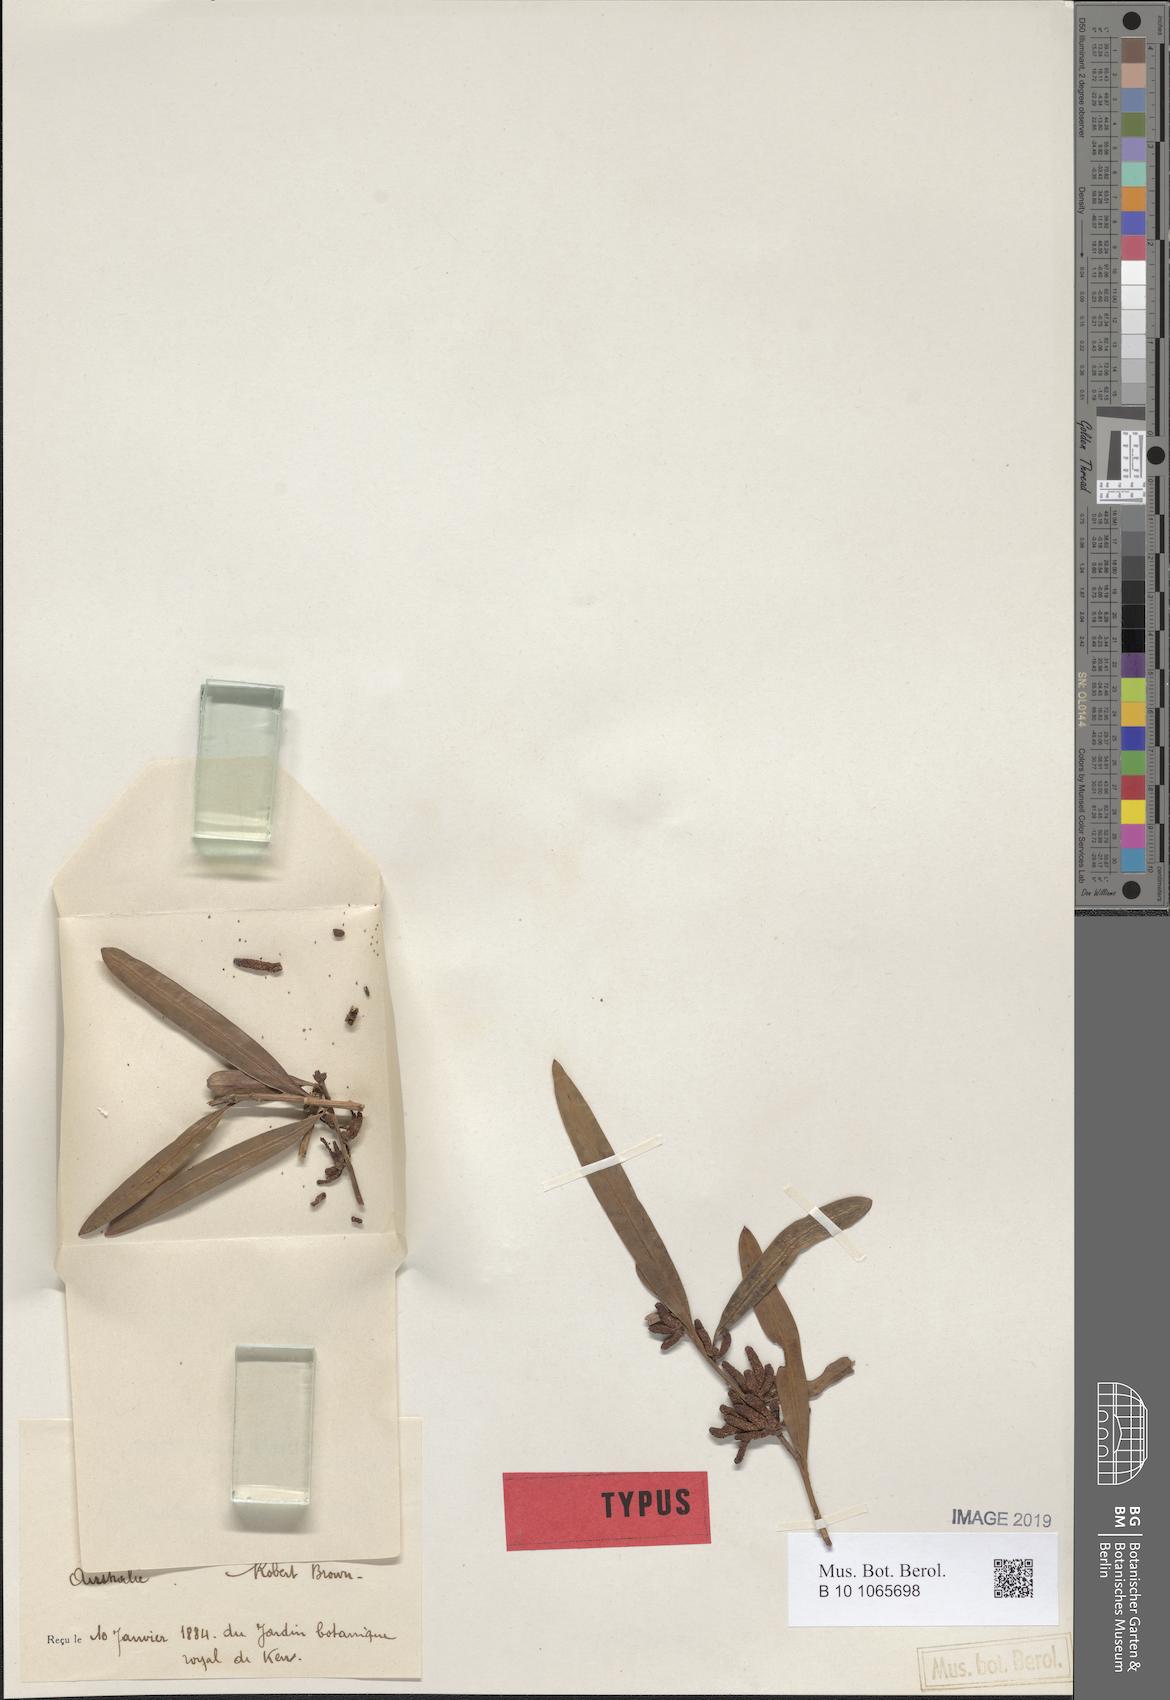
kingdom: Plantae
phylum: Tracheophyta
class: Pinopsida
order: Pinales
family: Podocarpaceae
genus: Podocarpus
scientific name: Podocarpus elatus
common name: Plum pine
